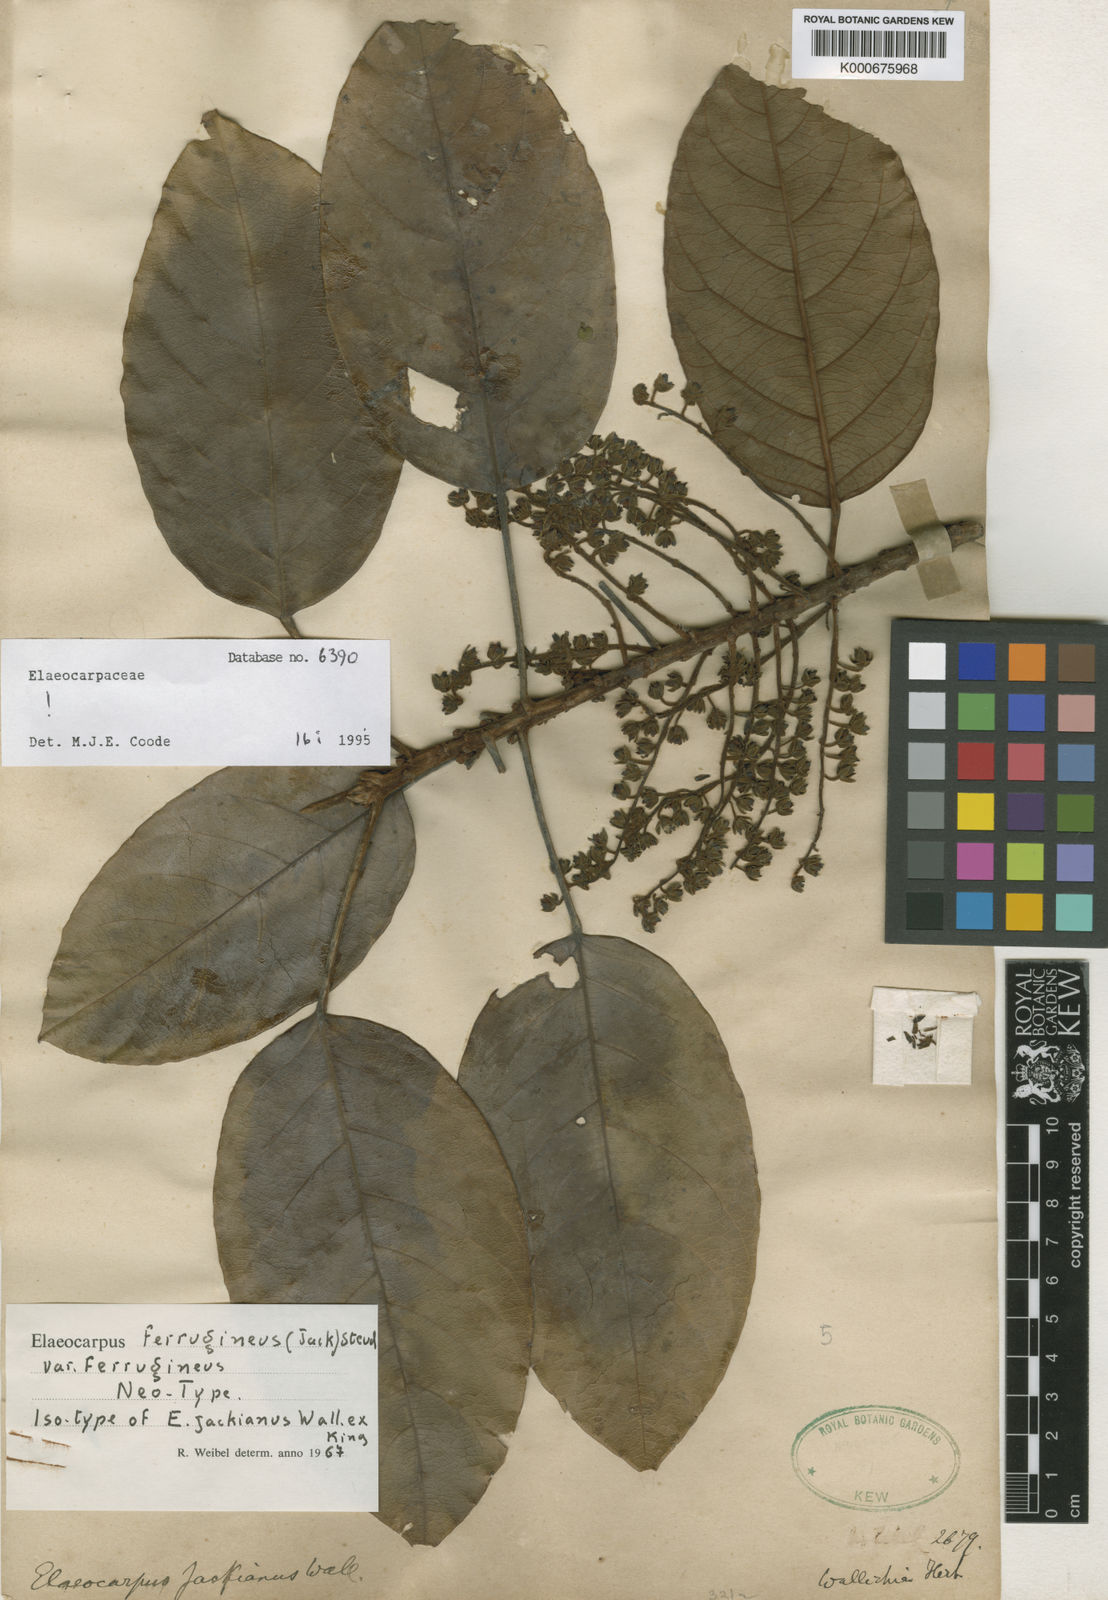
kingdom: Plantae
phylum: Tracheophyta
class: Magnoliopsida
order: Oxalidales
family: Elaeocarpaceae
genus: Elaeocarpus
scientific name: Elaeocarpus ferrugineus
